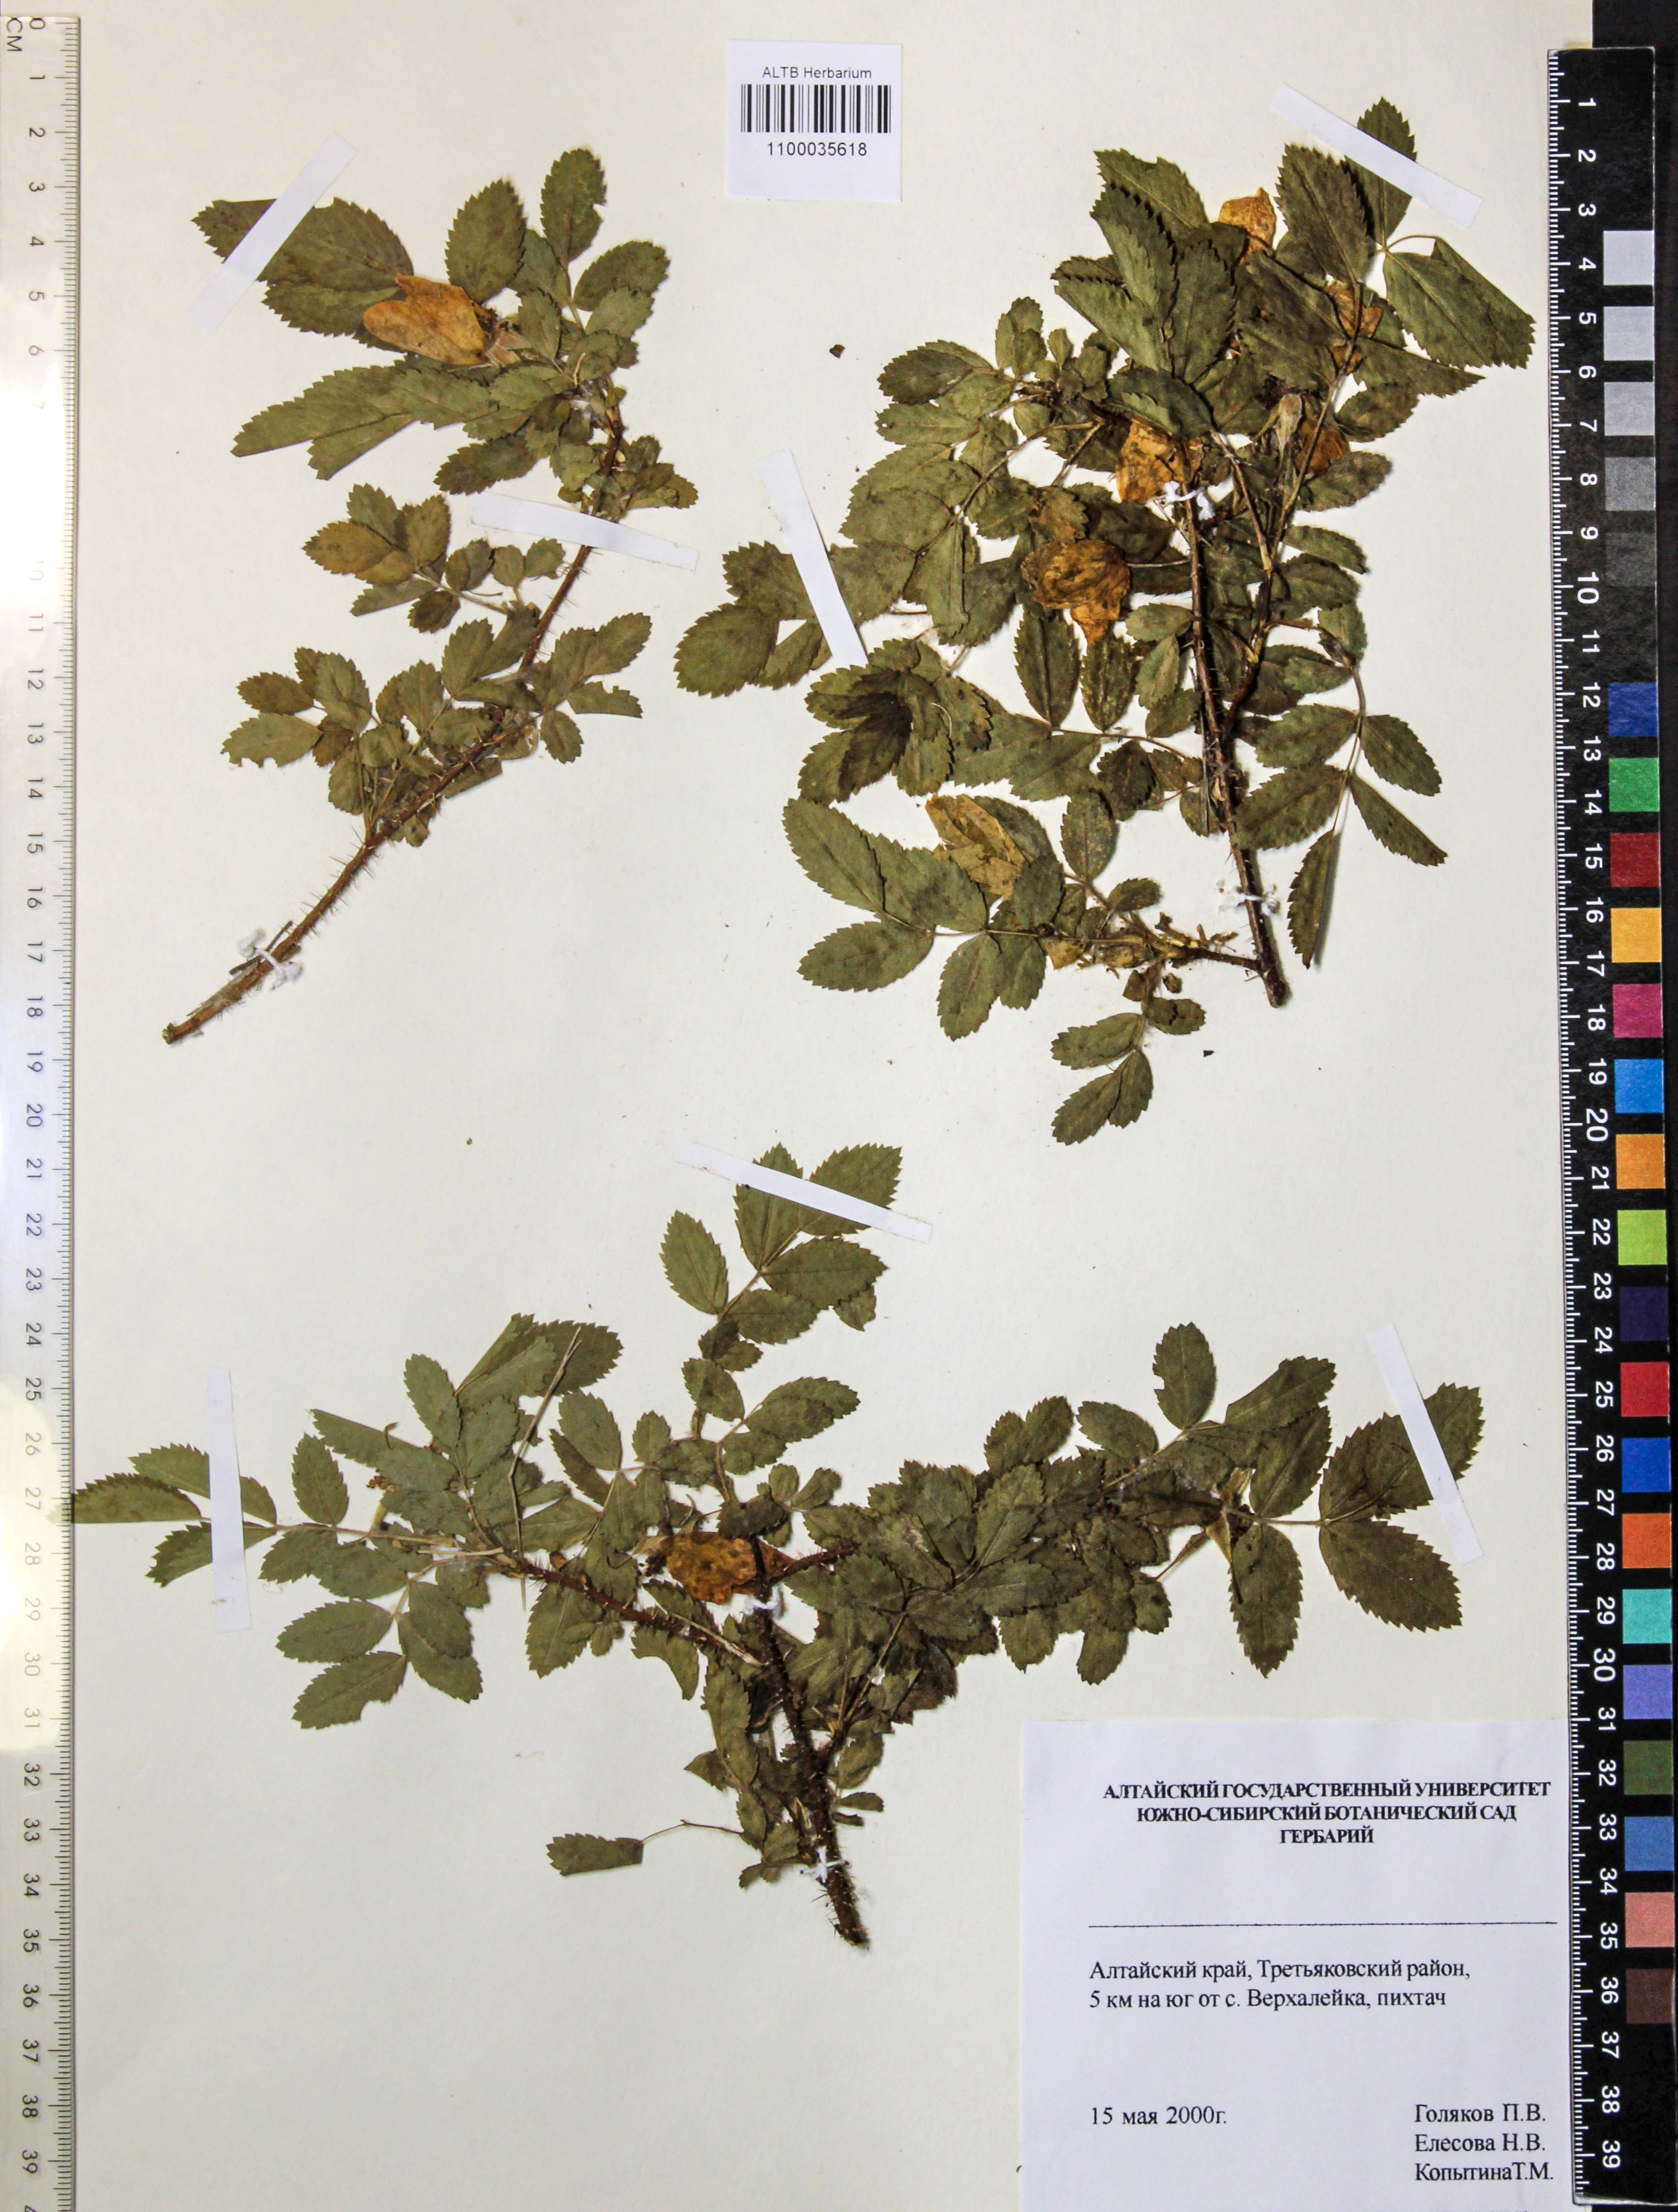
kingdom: Plantae
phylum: Tracheophyta
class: Magnoliopsida
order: Rosales
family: Rosaceae
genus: Rosa
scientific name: Rosa majalis
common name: Cinnamon rose
